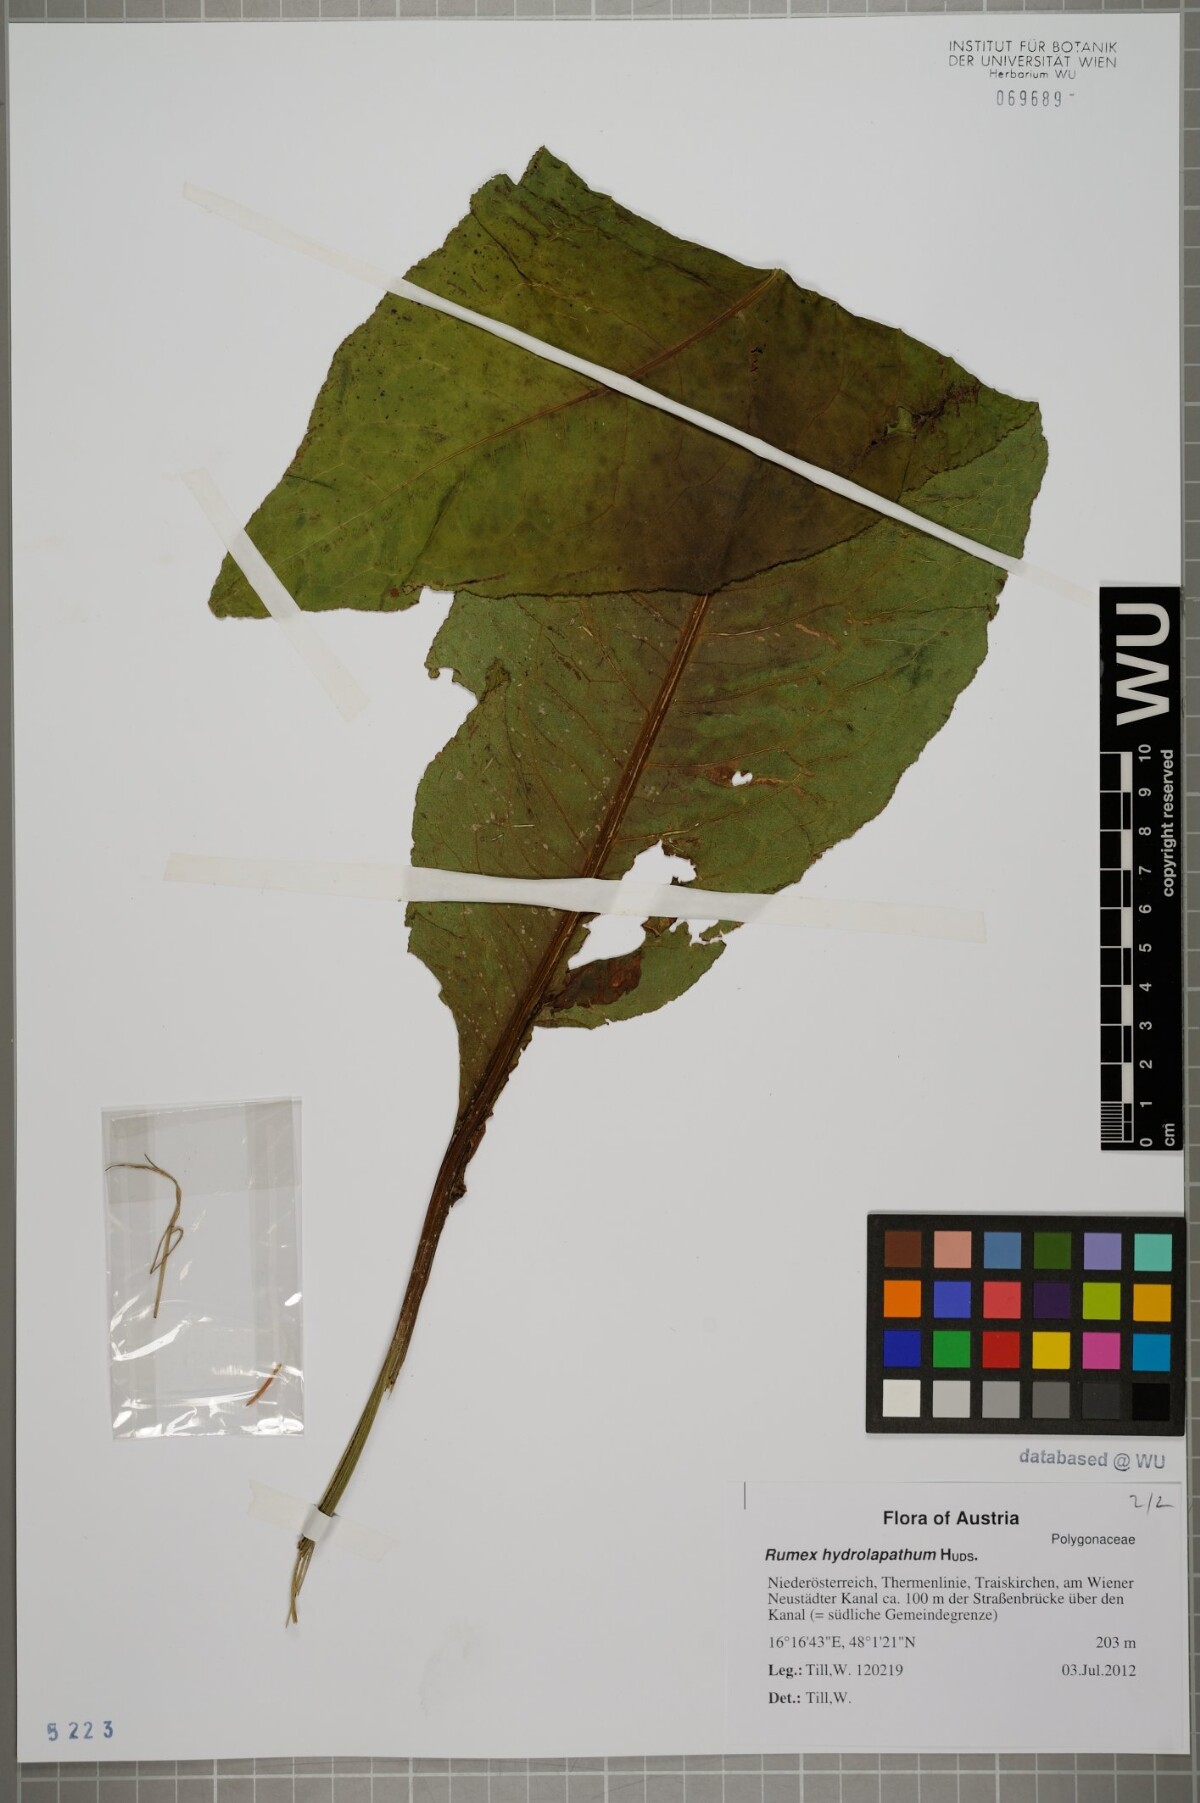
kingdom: Plantae
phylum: Tracheophyta
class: Magnoliopsida
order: Caryophyllales
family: Polygonaceae
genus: Rumex
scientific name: Rumex hydrolapathum
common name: Water dock
